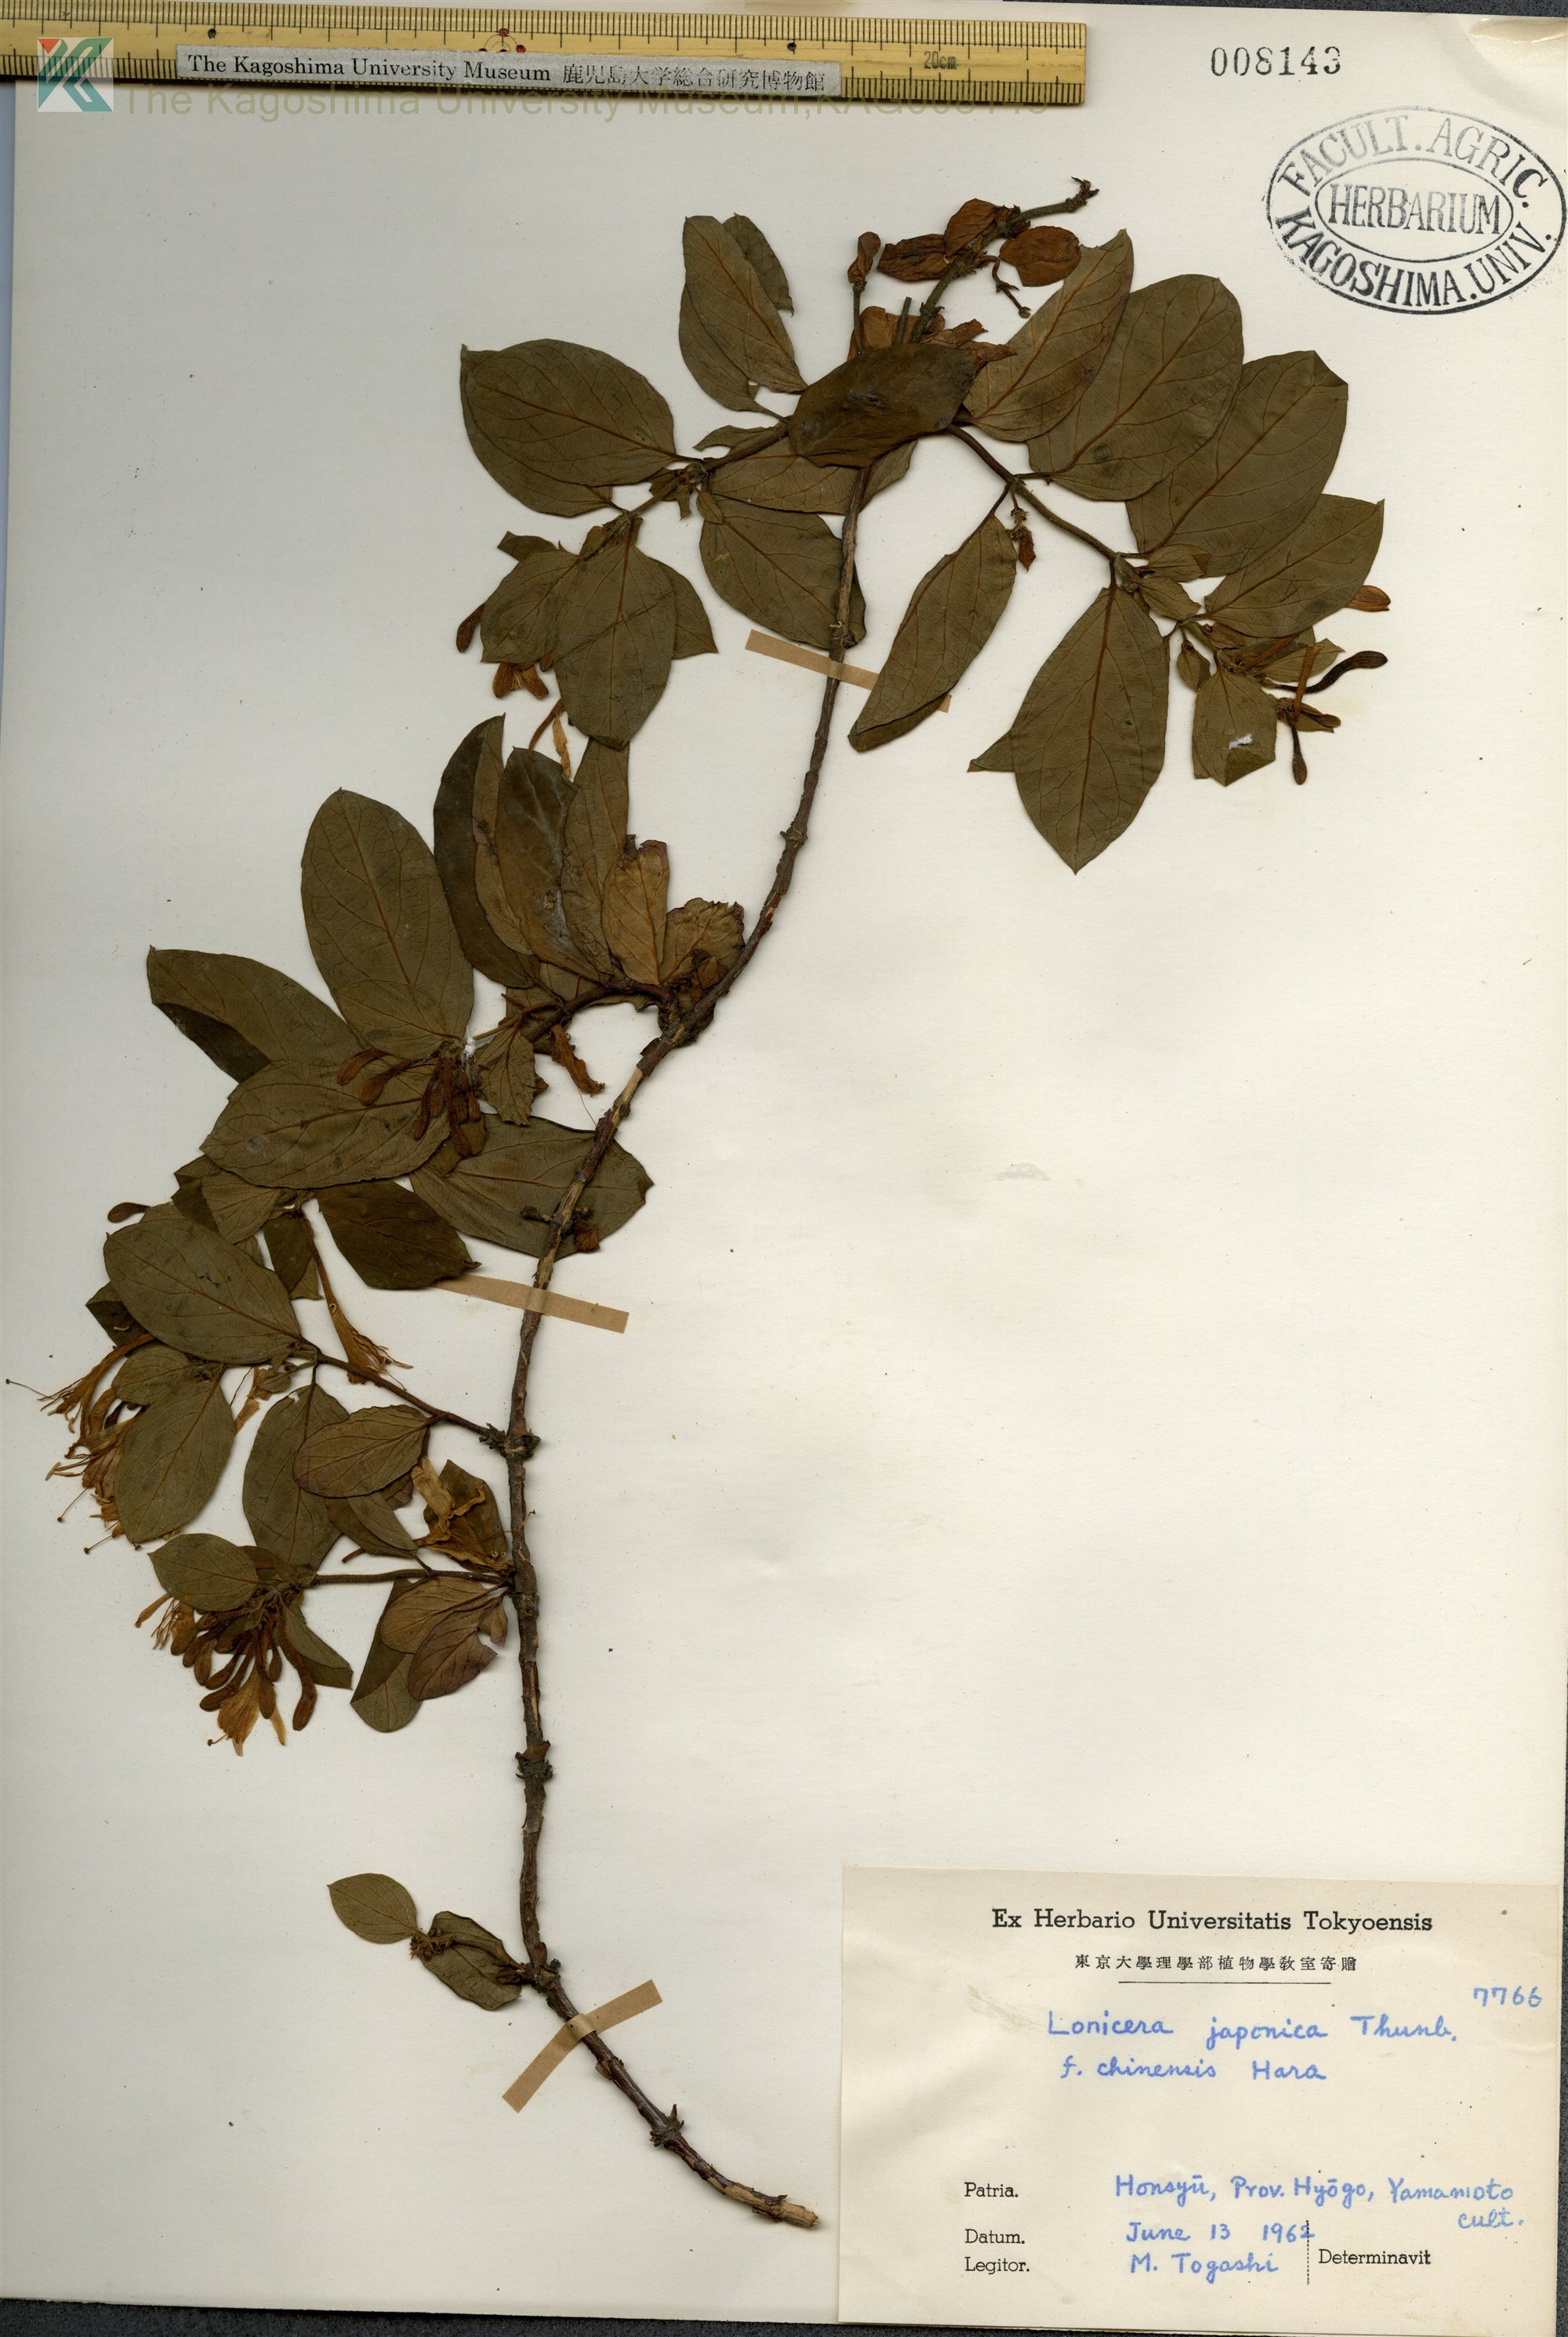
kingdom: Plantae
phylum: Tracheophyta
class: Magnoliopsida
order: Dipsacales
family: Caprifoliaceae
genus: Lonicera
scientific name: Lonicera japonica
